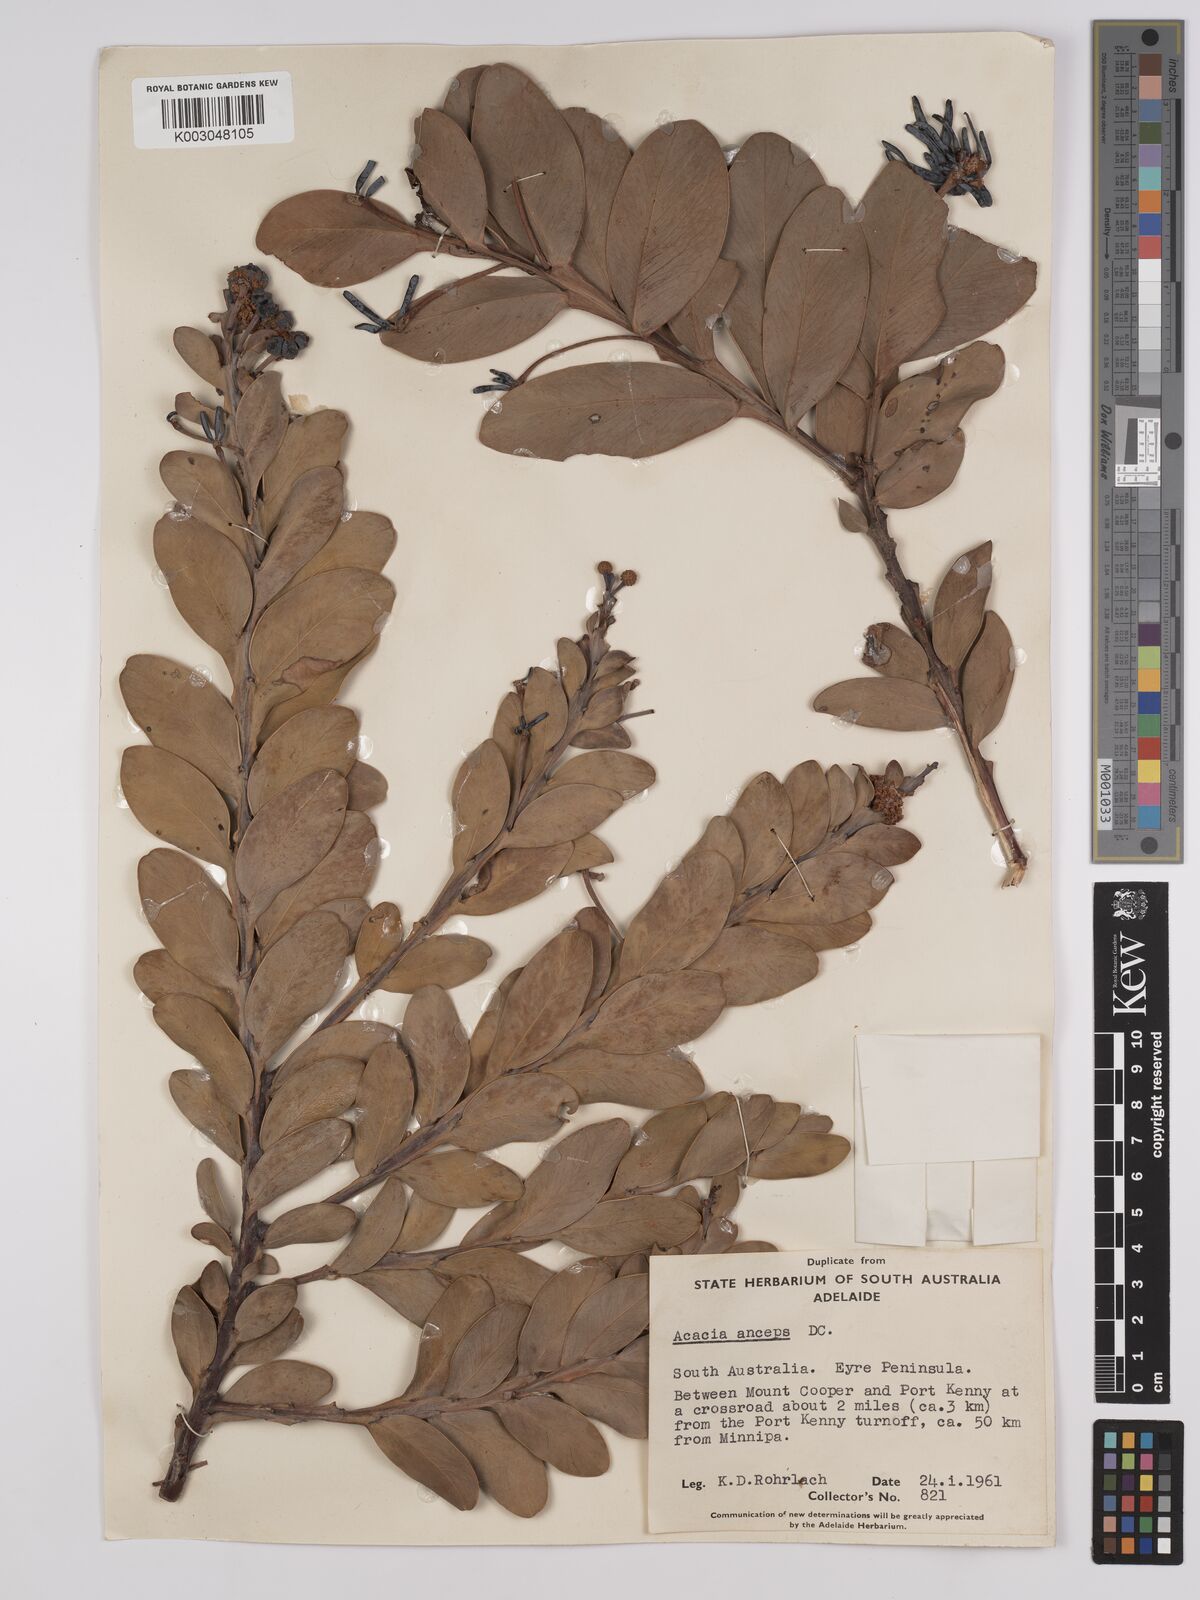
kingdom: Plantae
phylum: Tracheophyta
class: Magnoliopsida
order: Fabales
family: Fabaceae
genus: Acacia
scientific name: Acacia anceps
